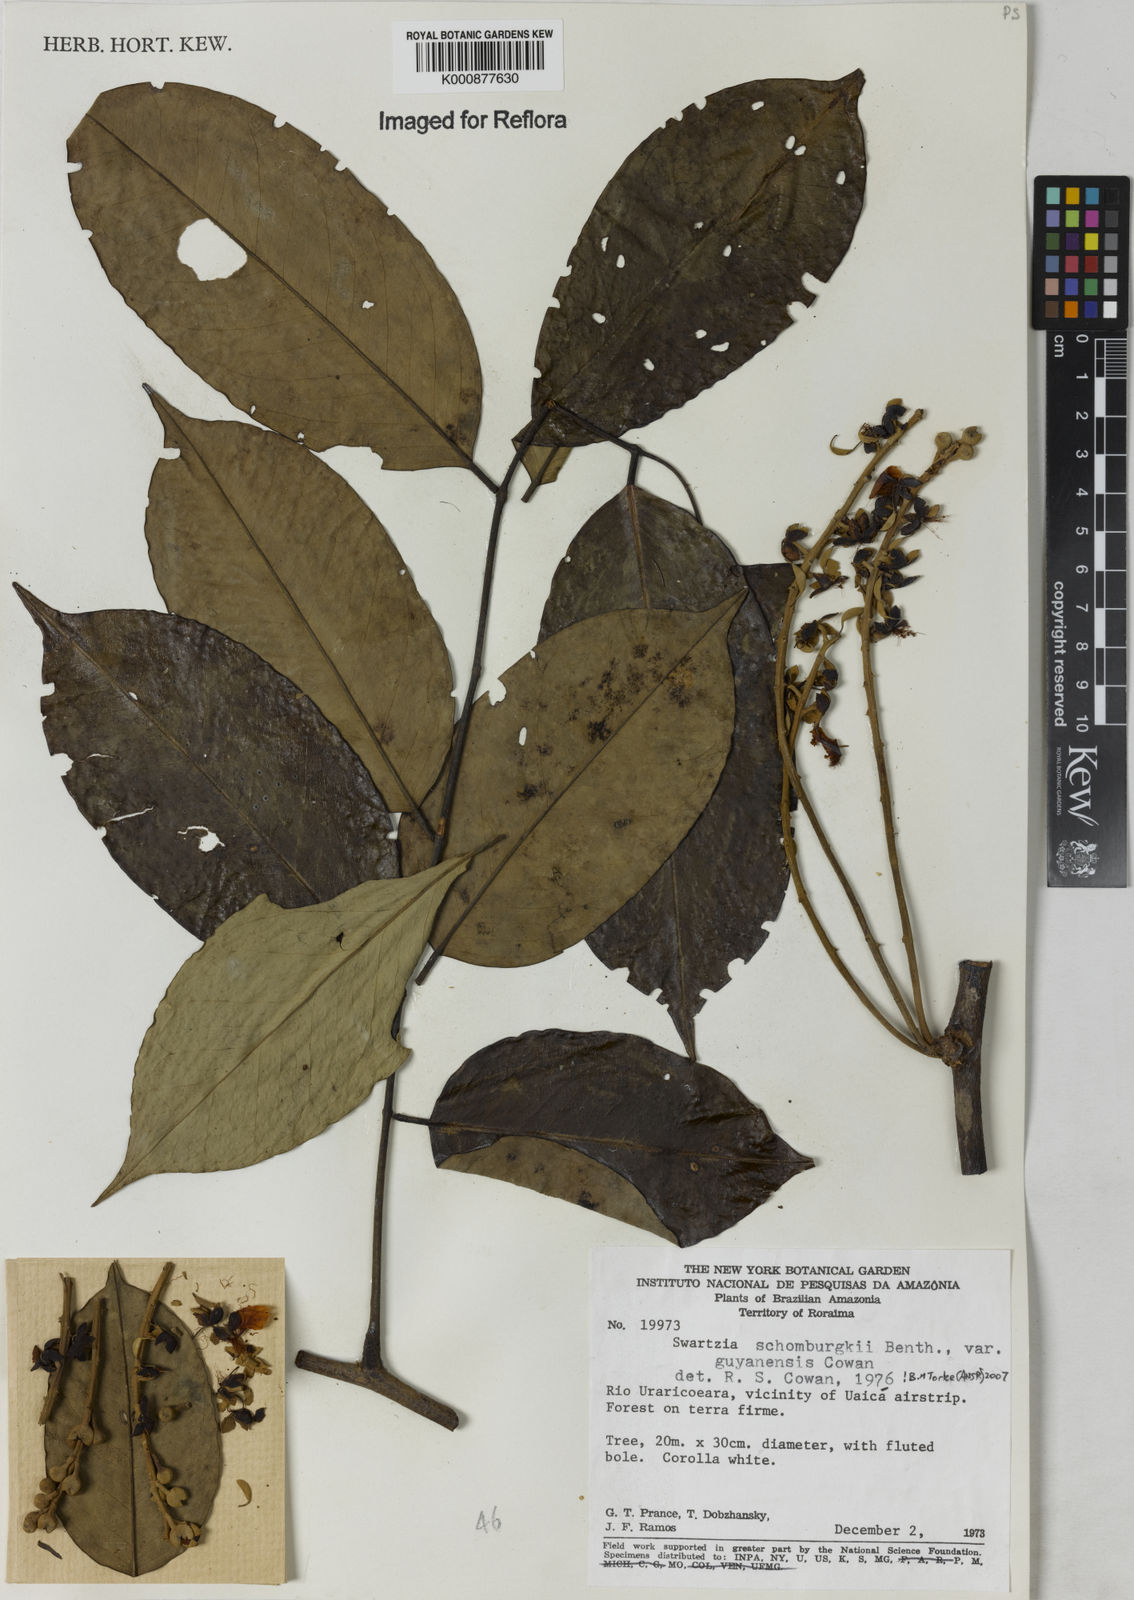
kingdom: Plantae
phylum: Tracheophyta
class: Magnoliopsida
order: Fabales
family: Fabaceae
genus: Swartzia
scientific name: Swartzia schomburgkii
